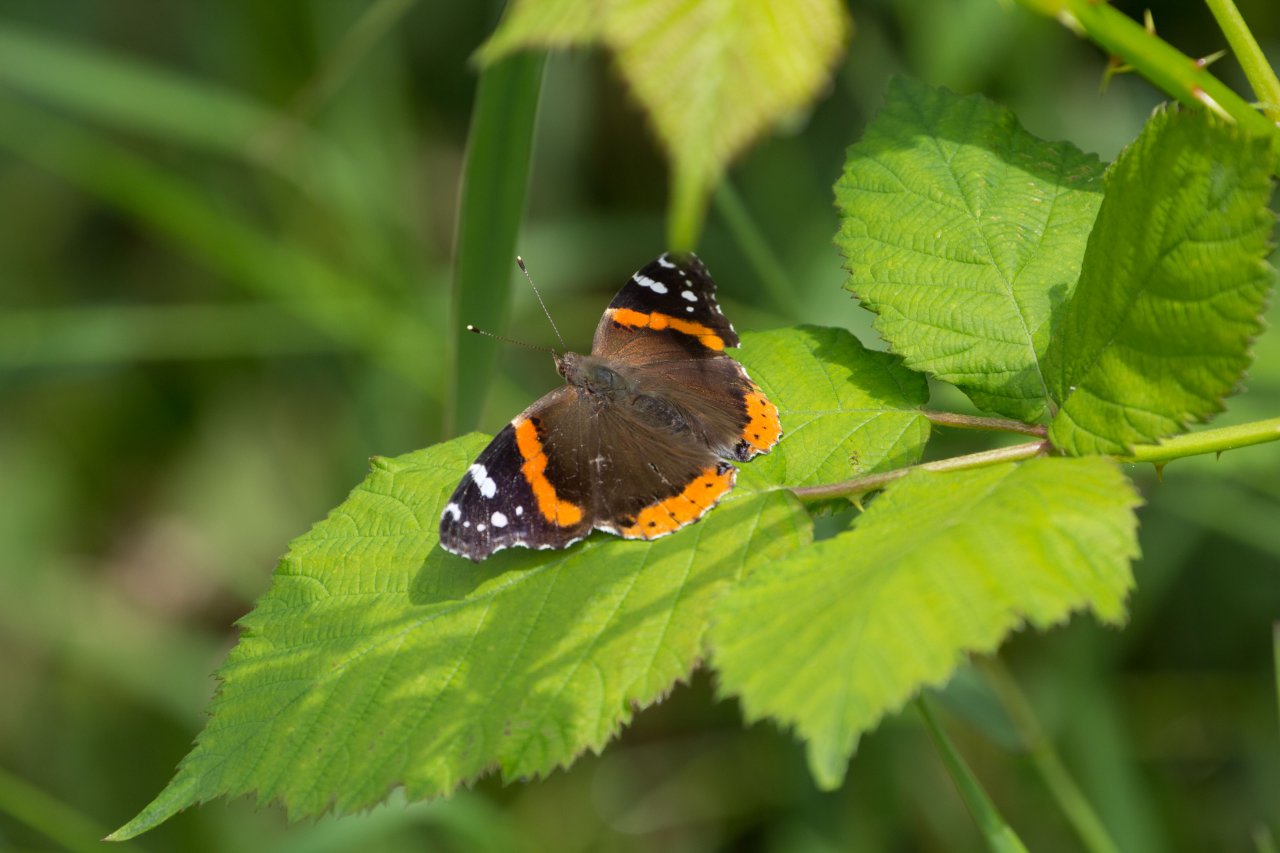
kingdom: Animalia
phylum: Arthropoda
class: Insecta
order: Lepidoptera
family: Nymphalidae
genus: Vanessa
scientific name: Vanessa atalanta
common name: Red Admiral
